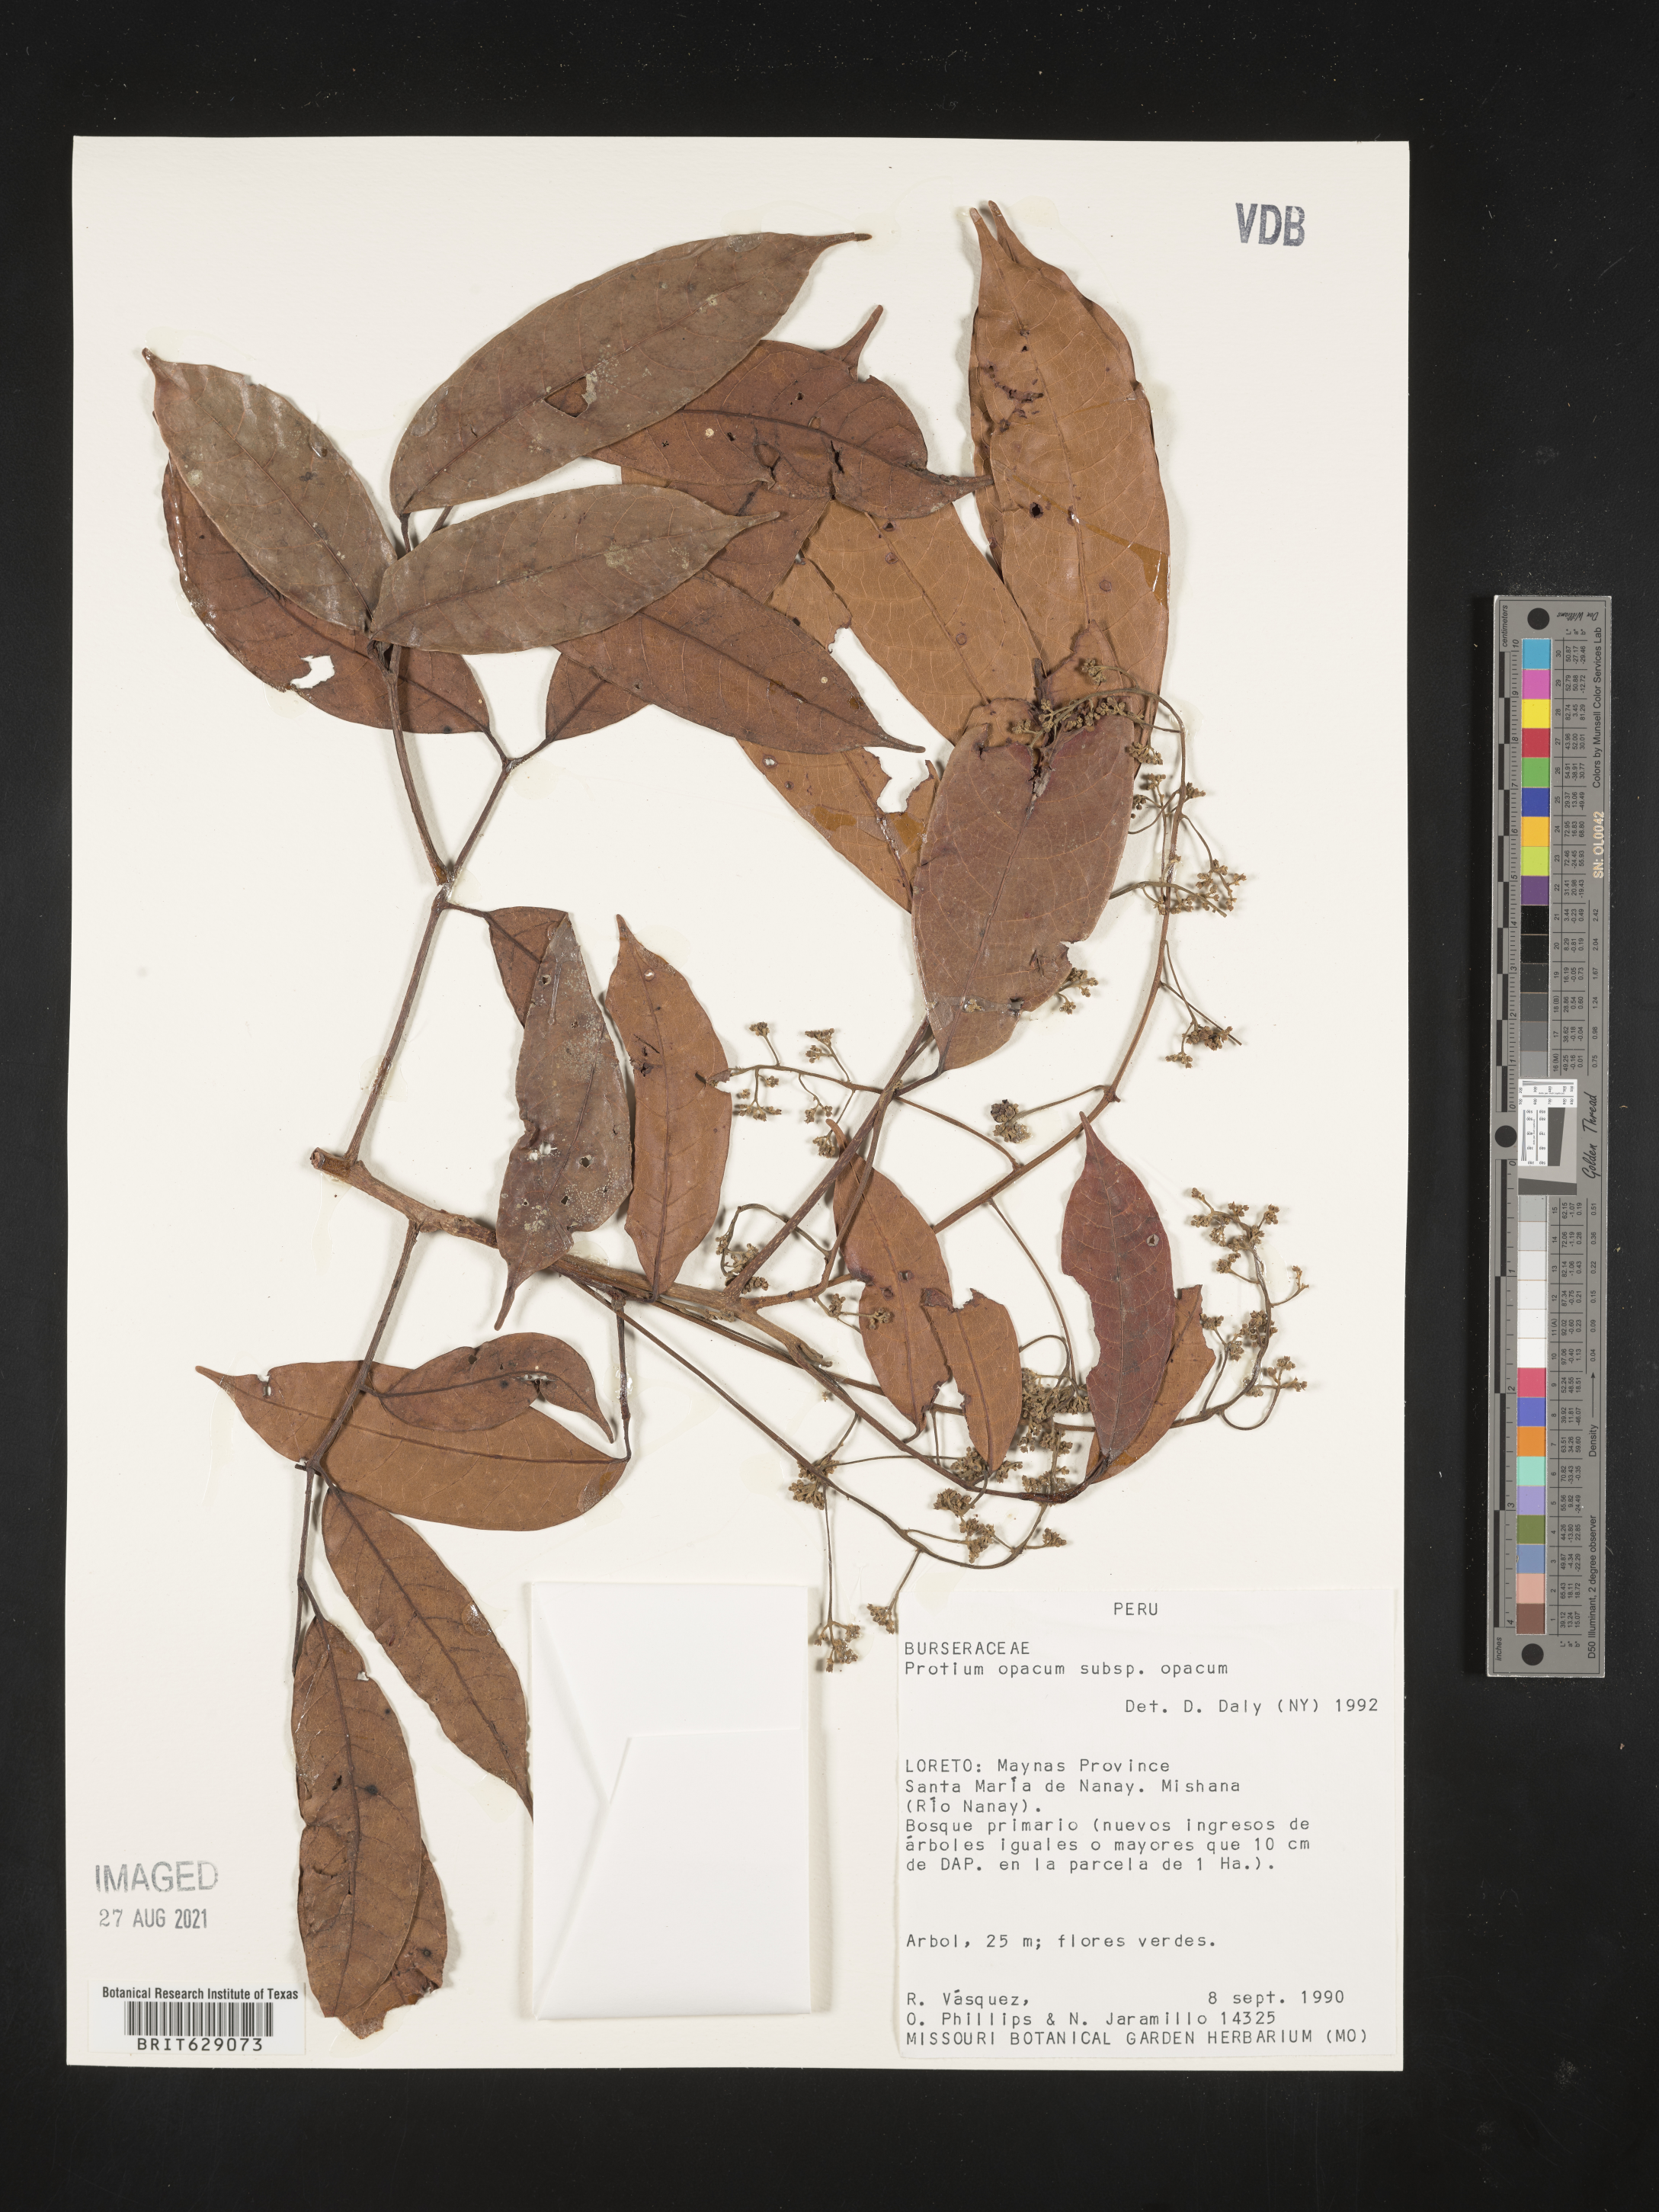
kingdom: Plantae
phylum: Tracheophyta
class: Magnoliopsida
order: Sapindales
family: Burseraceae
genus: Protium
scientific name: Protium opacum
